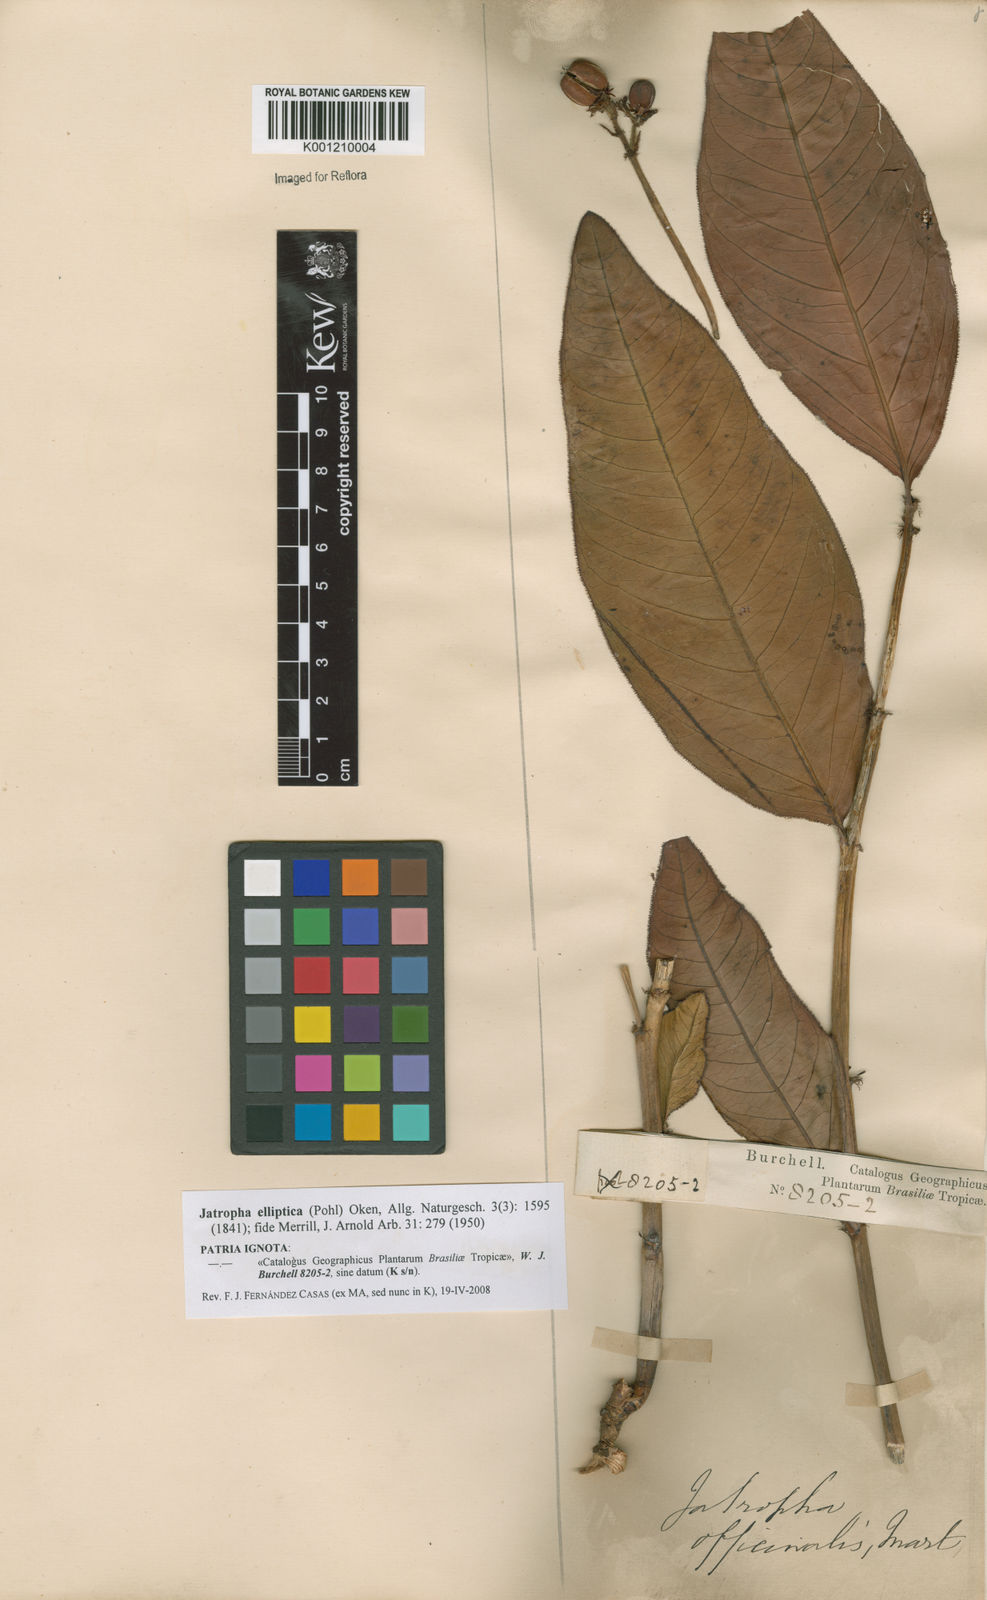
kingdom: Plantae
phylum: Tracheophyta
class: Magnoliopsida
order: Malpighiales
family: Euphorbiaceae
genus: Jatropha
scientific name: Jatropha elliptica
